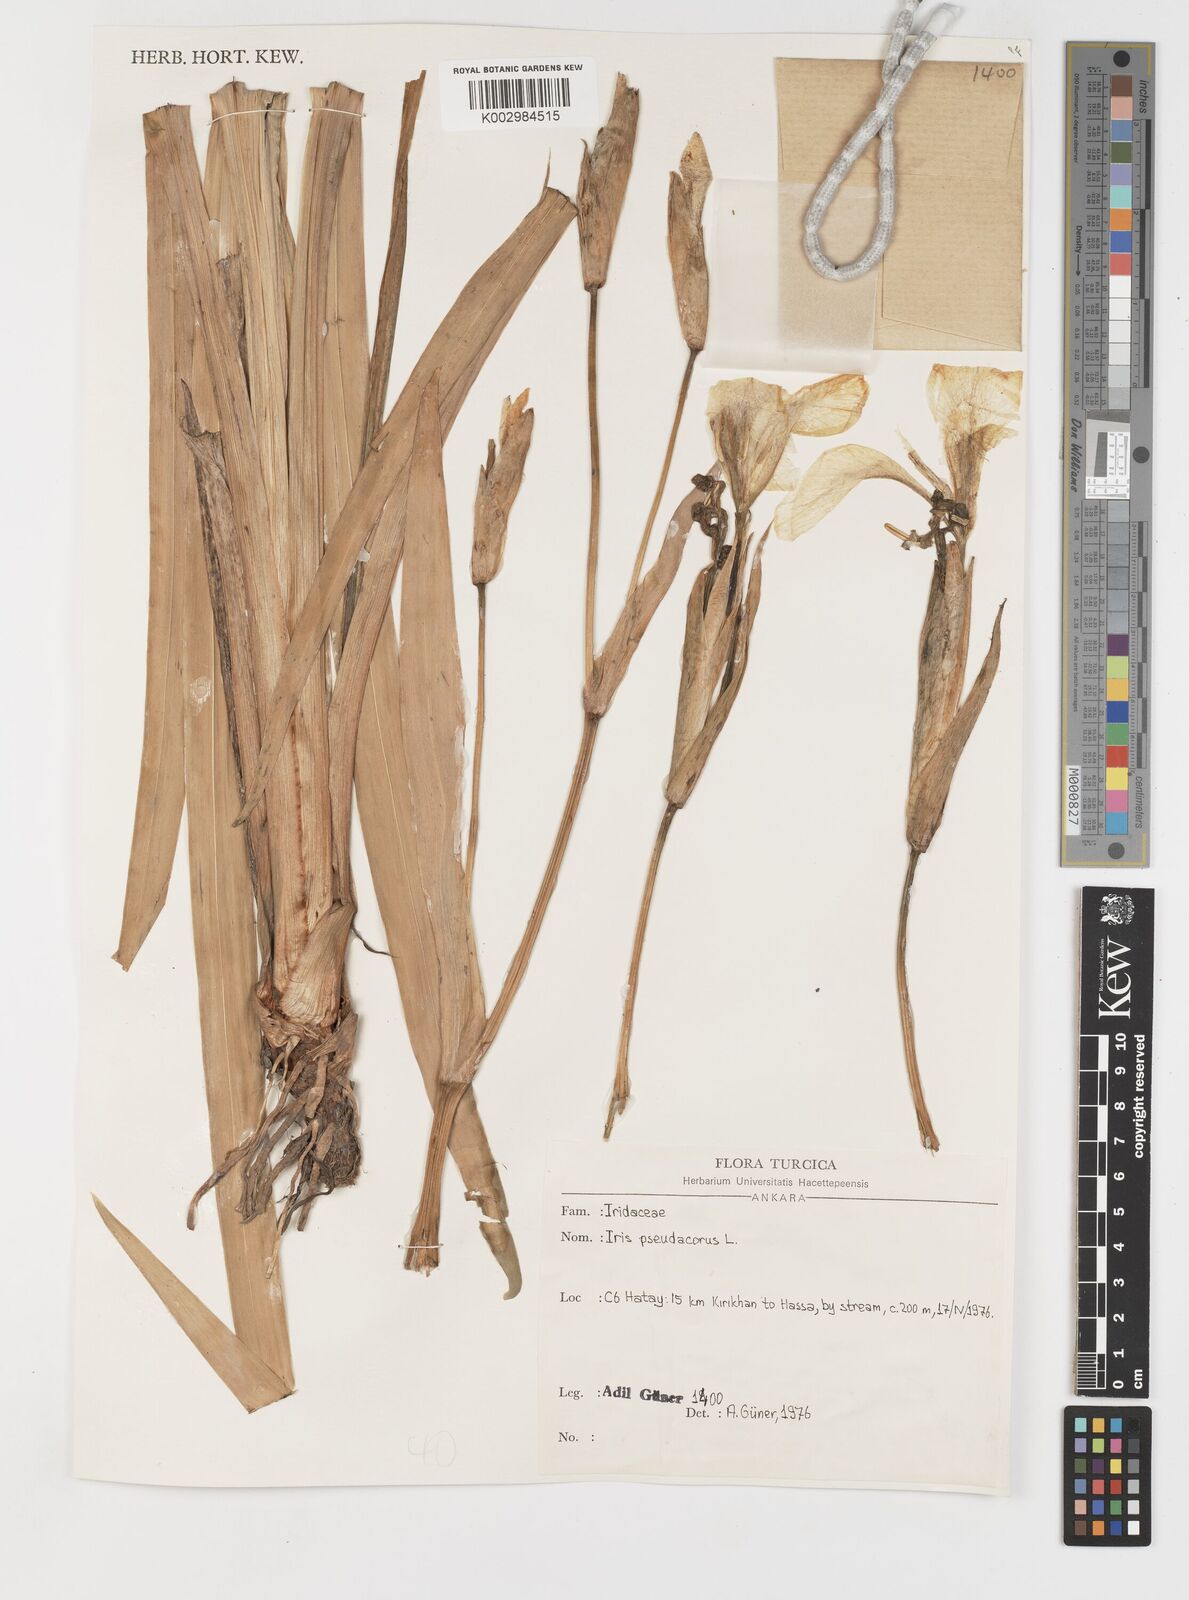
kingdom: Plantae
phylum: Tracheophyta
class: Liliopsida
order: Asparagales
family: Iridaceae
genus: Iris
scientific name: Iris pseudacorus
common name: Yellow flag
